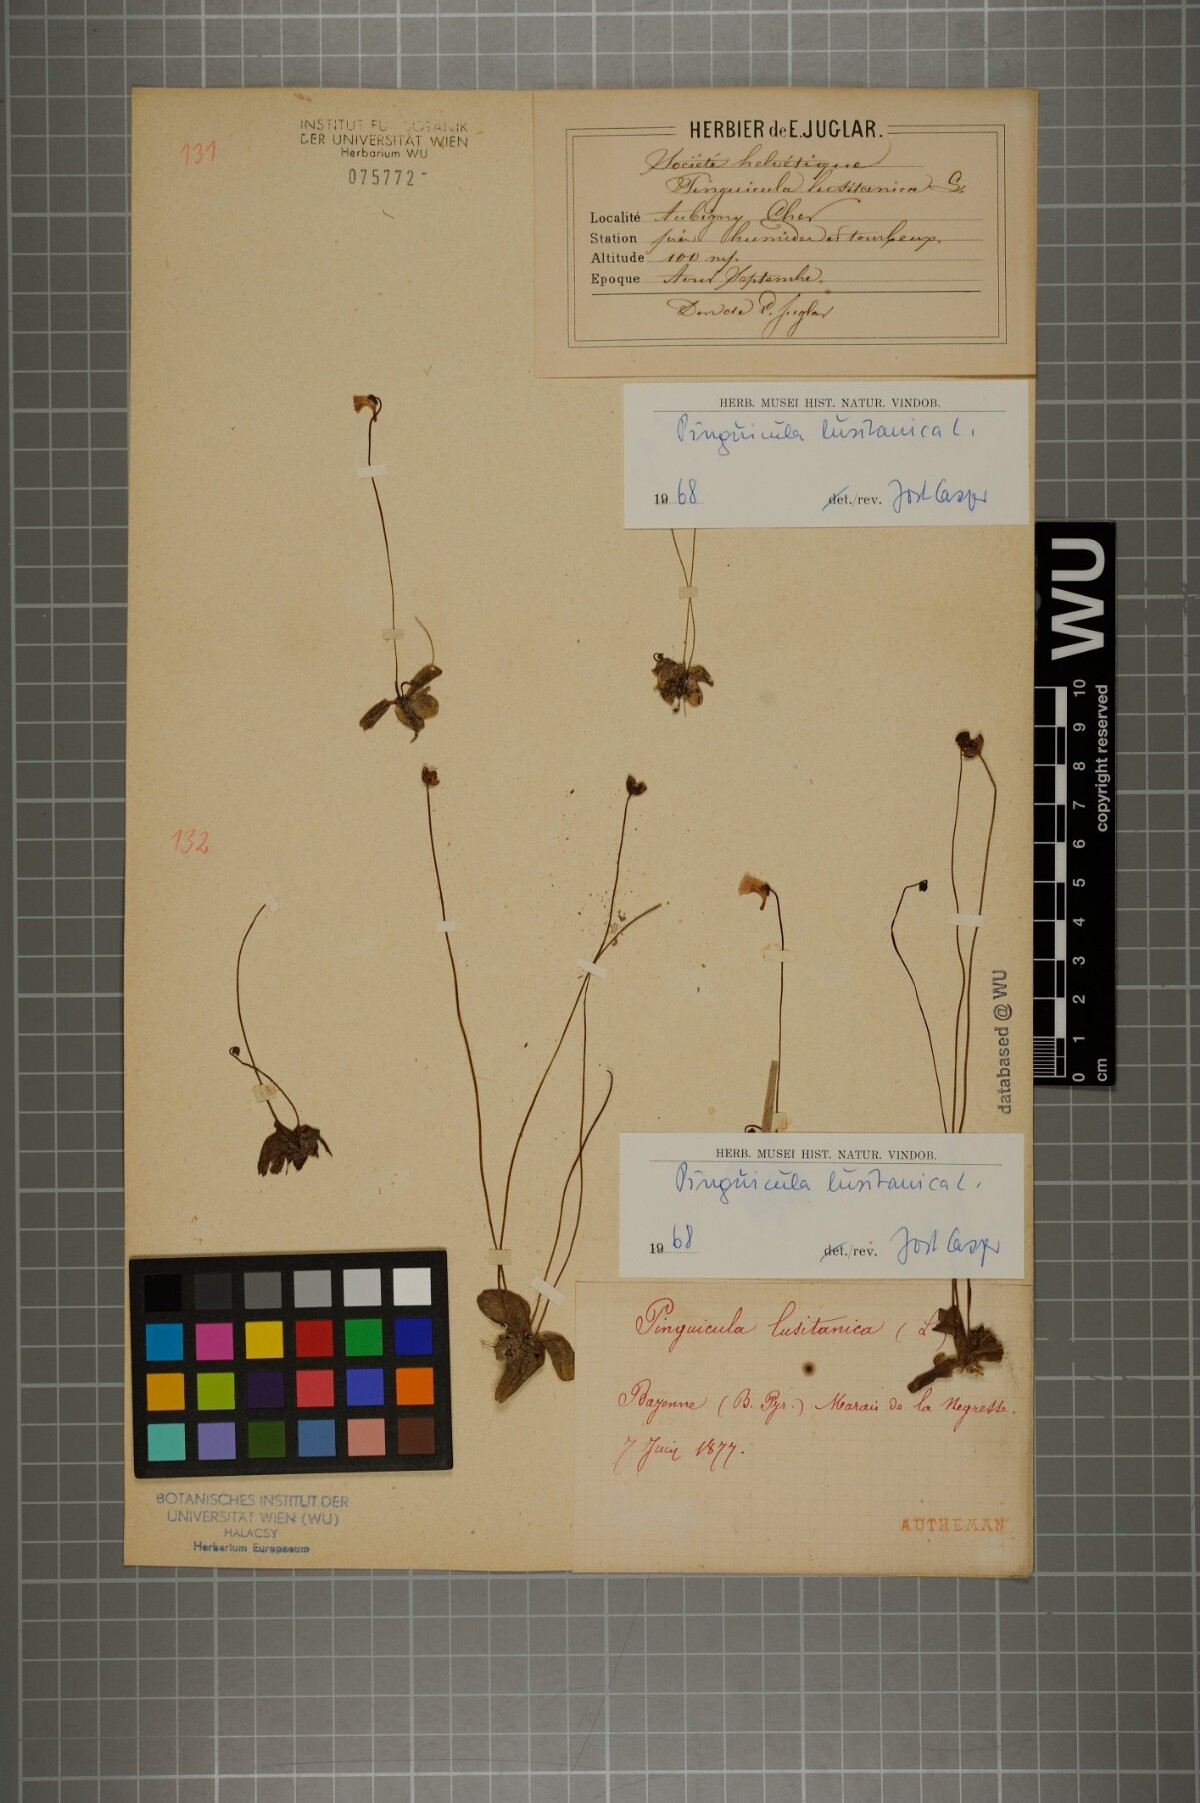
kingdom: Plantae
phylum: Tracheophyta
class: Magnoliopsida
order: Lamiales
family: Lentibulariaceae
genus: Pinguicula
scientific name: Pinguicula lusitanica
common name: Pale butterwort
